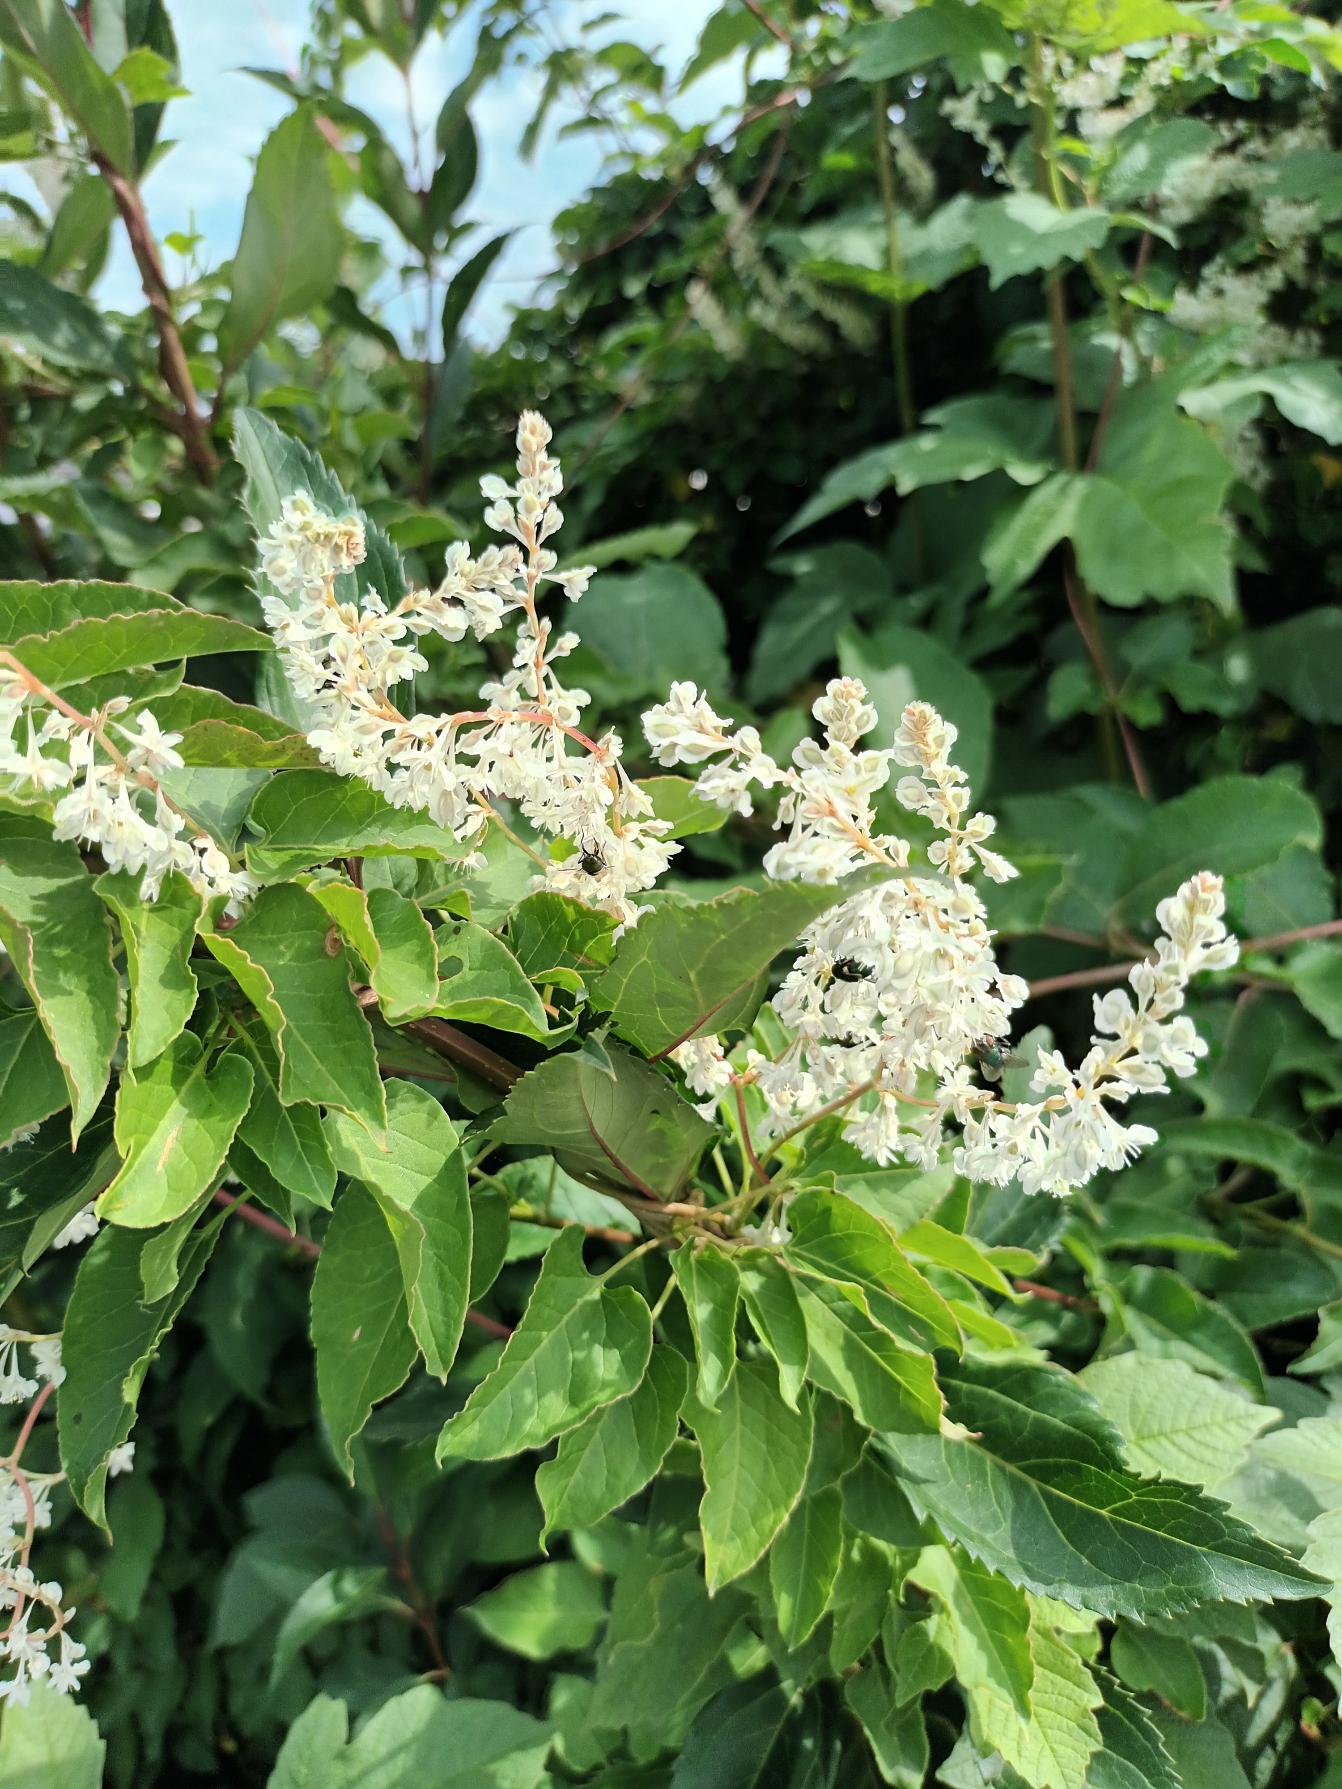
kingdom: Plantae
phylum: Tracheophyta
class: Magnoliopsida
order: Caryophyllales
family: Polygonaceae
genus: Fallopia
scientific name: Fallopia baldschuanica
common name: Sølvregn
